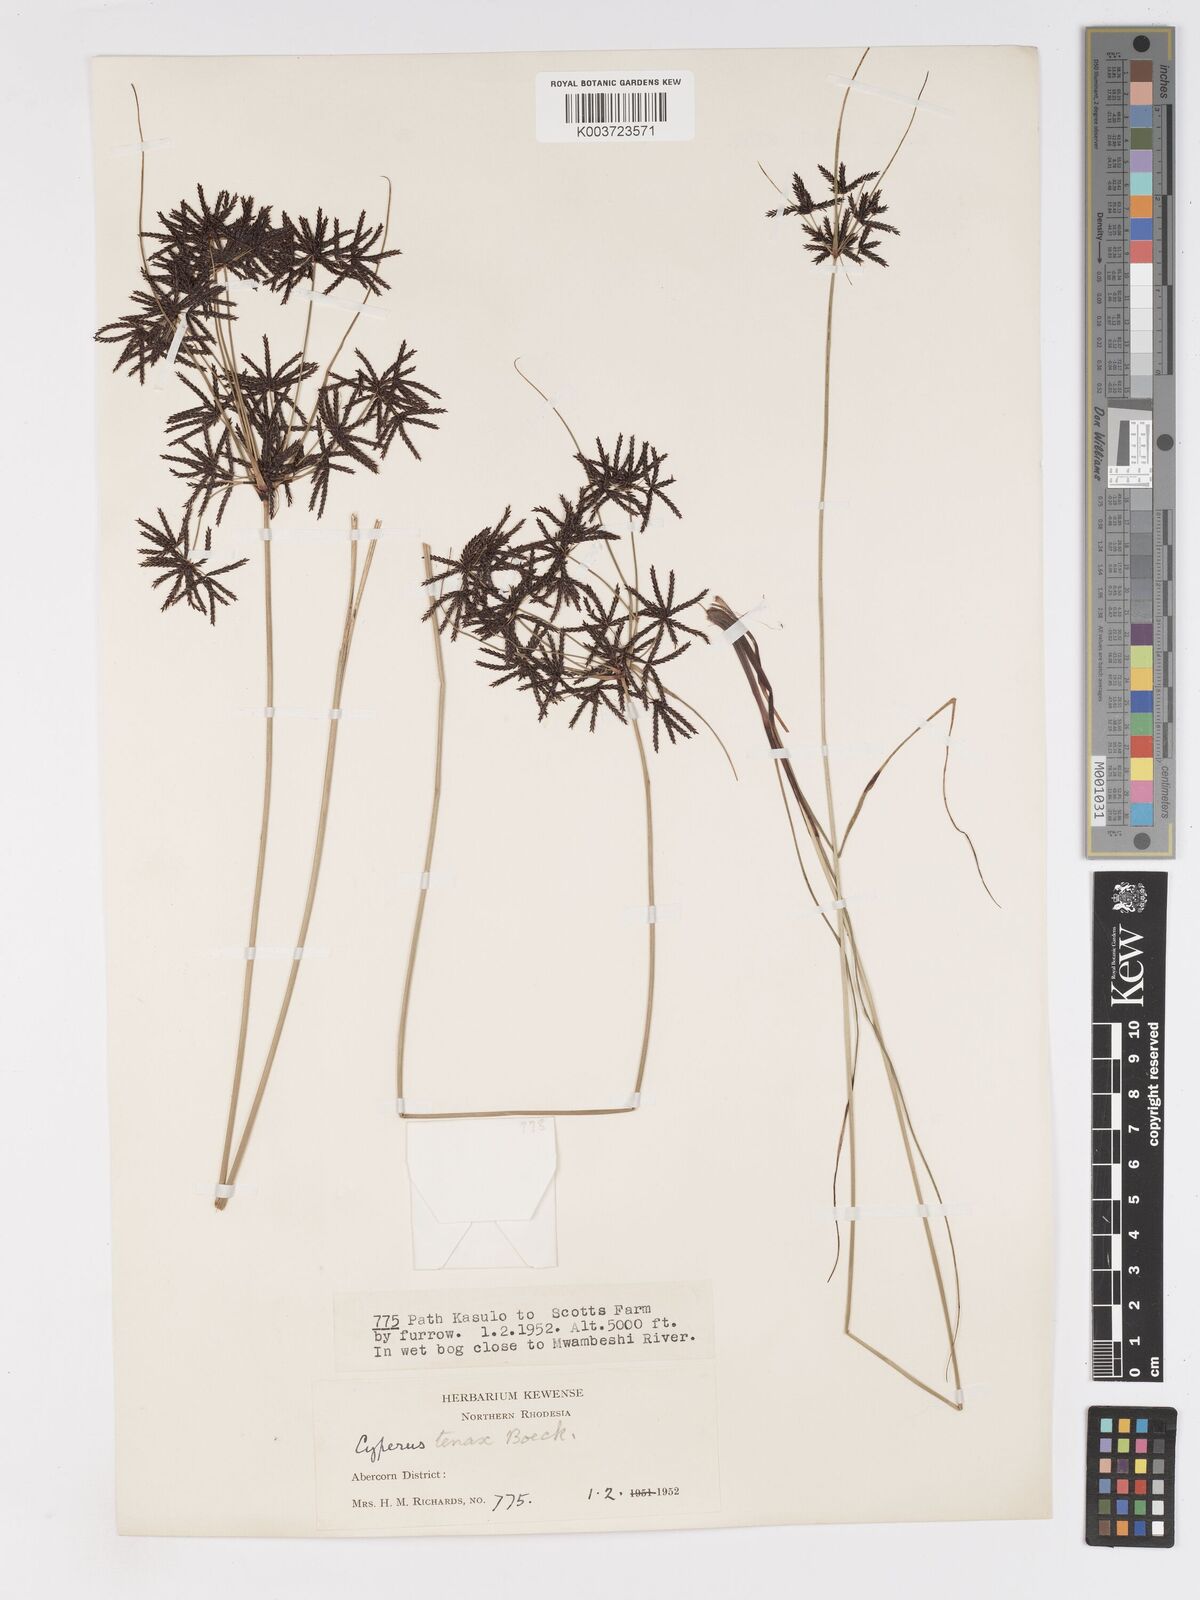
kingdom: Plantae
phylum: Tracheophyta
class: Liliopsida
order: Poales
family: Cyperaceae
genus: Cyperus
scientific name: Cyperus tenax
